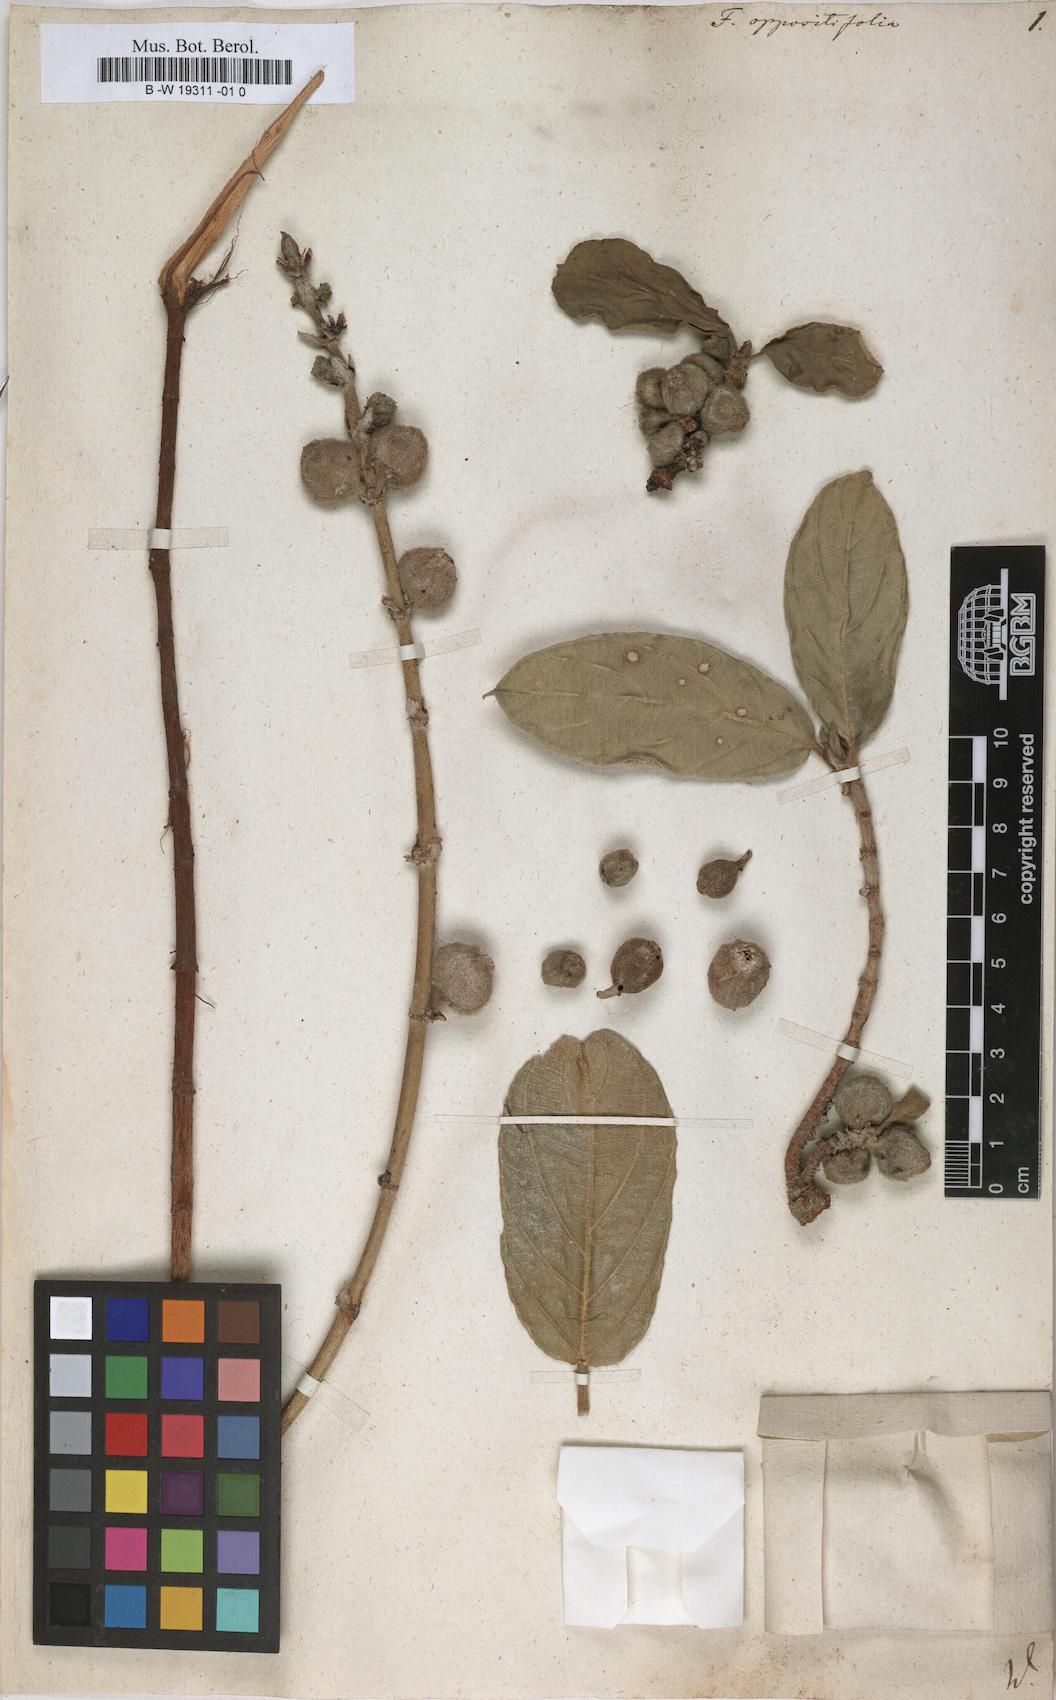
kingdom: Plantae
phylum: Tracheophyta
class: Magnoliopsida
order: Rosales
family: Moraceae
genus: Ficus
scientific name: Ficus hispida
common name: Hairy fig
